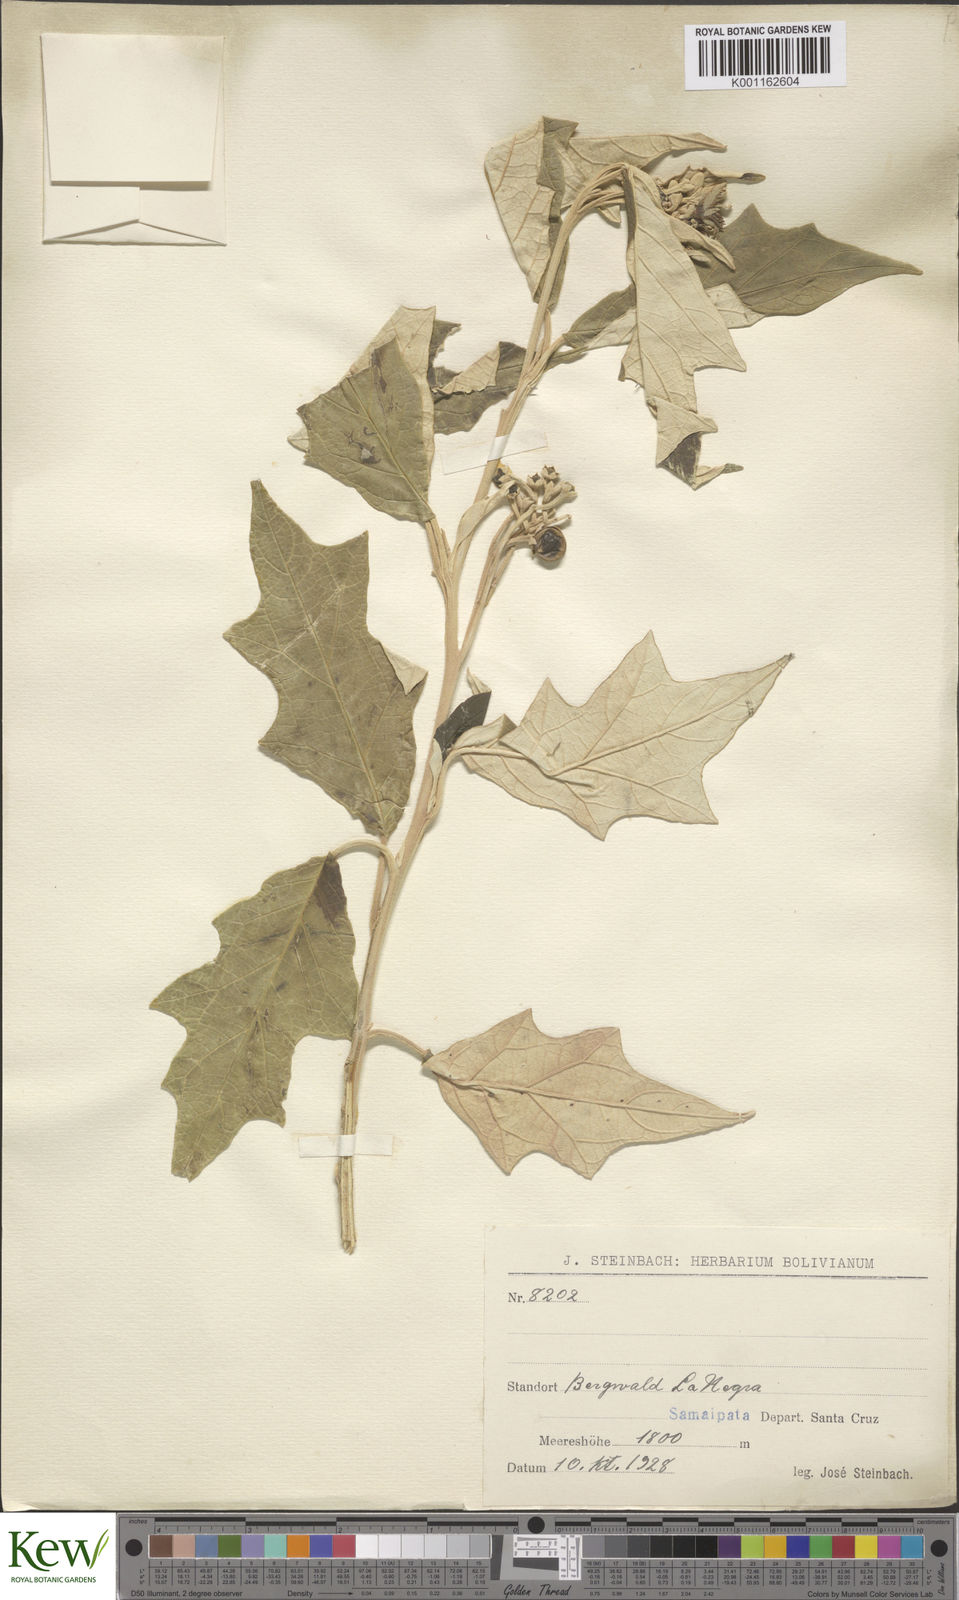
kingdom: Plantae
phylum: Tracheophyta
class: Magnoliopsida
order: Solanales
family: Solanaceae
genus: Solanum
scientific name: Solanum albidum
